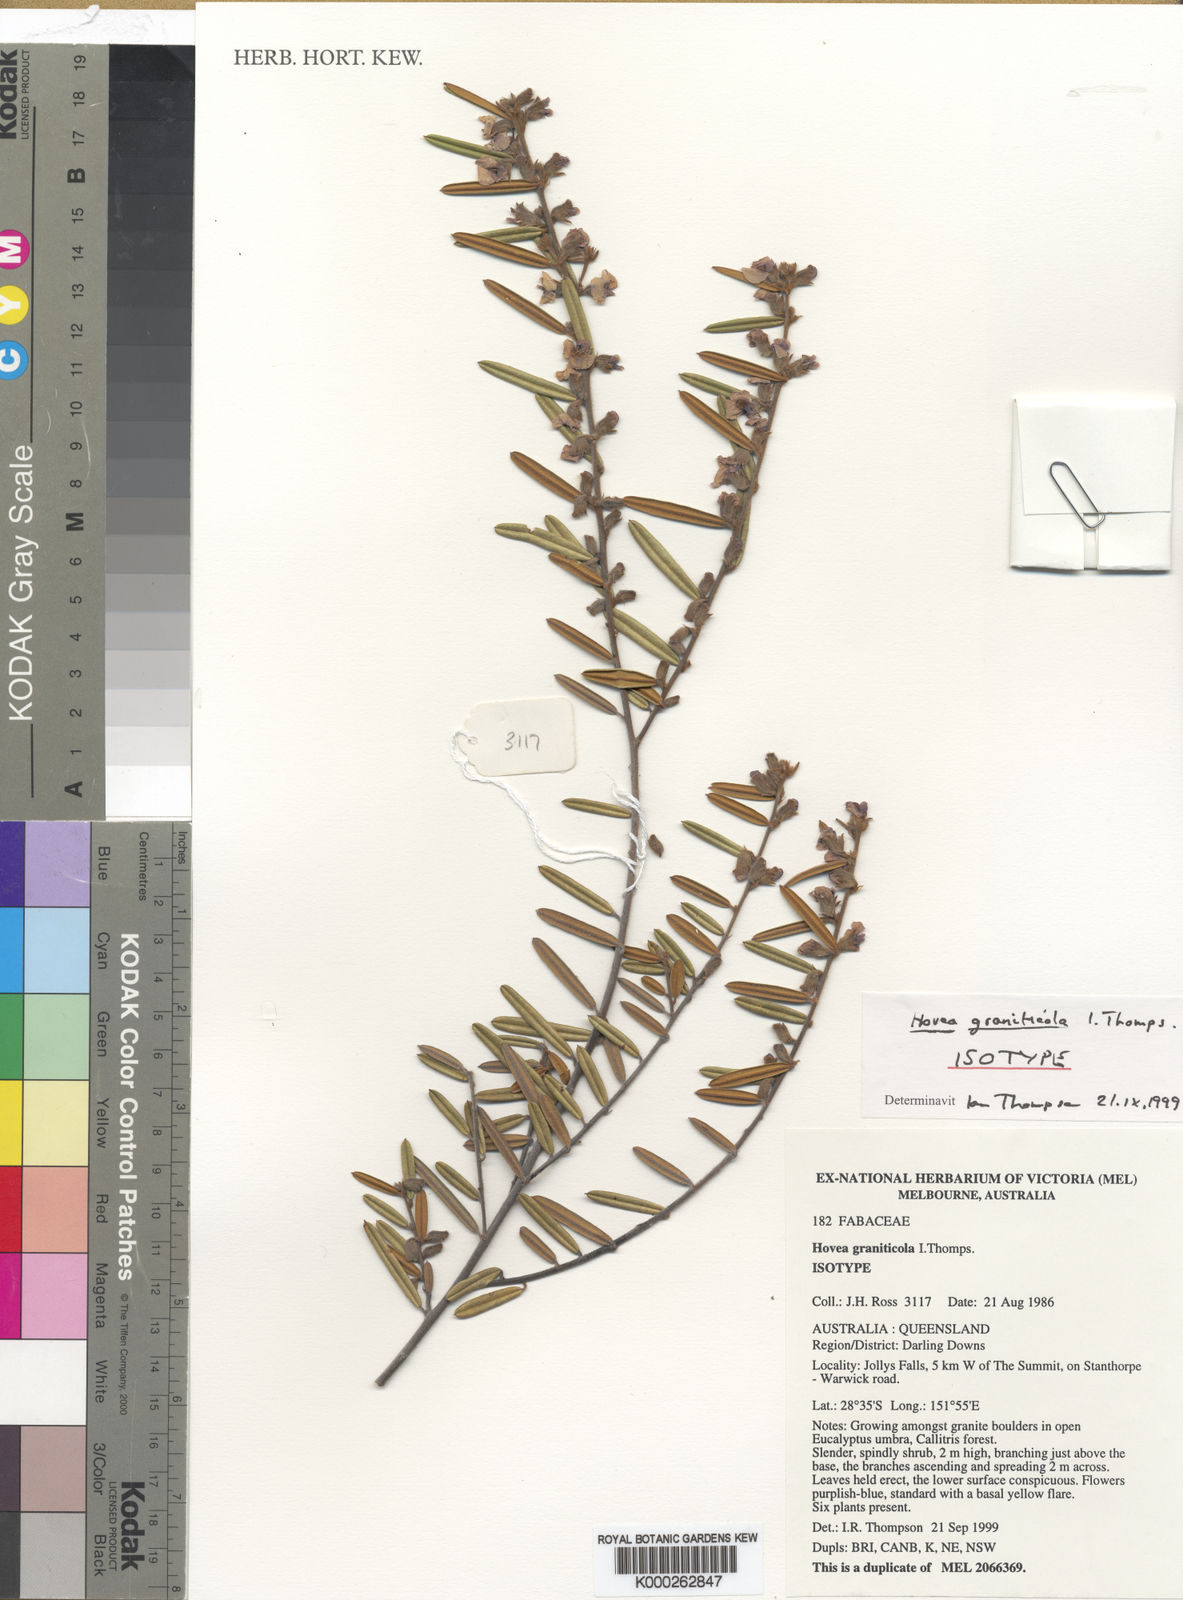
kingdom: Plantae
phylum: Tracheophyta
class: Magnoliopsida
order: Fabales
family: Fabaceae
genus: Hovea
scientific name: Hovea graniticola
